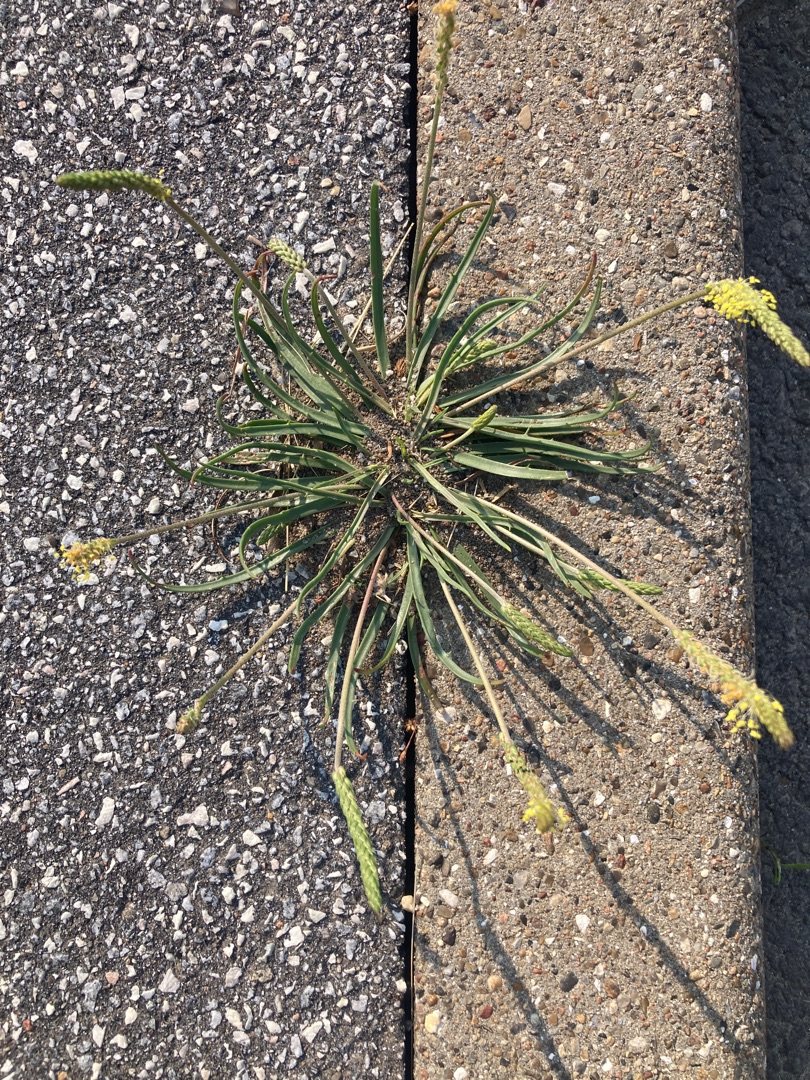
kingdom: Plantae
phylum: Tracheophyta
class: Magnoliopsida
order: Lamiales
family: Plantaginaceae
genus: Plantago
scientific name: Plantago maritima
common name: Strand-vejbred
